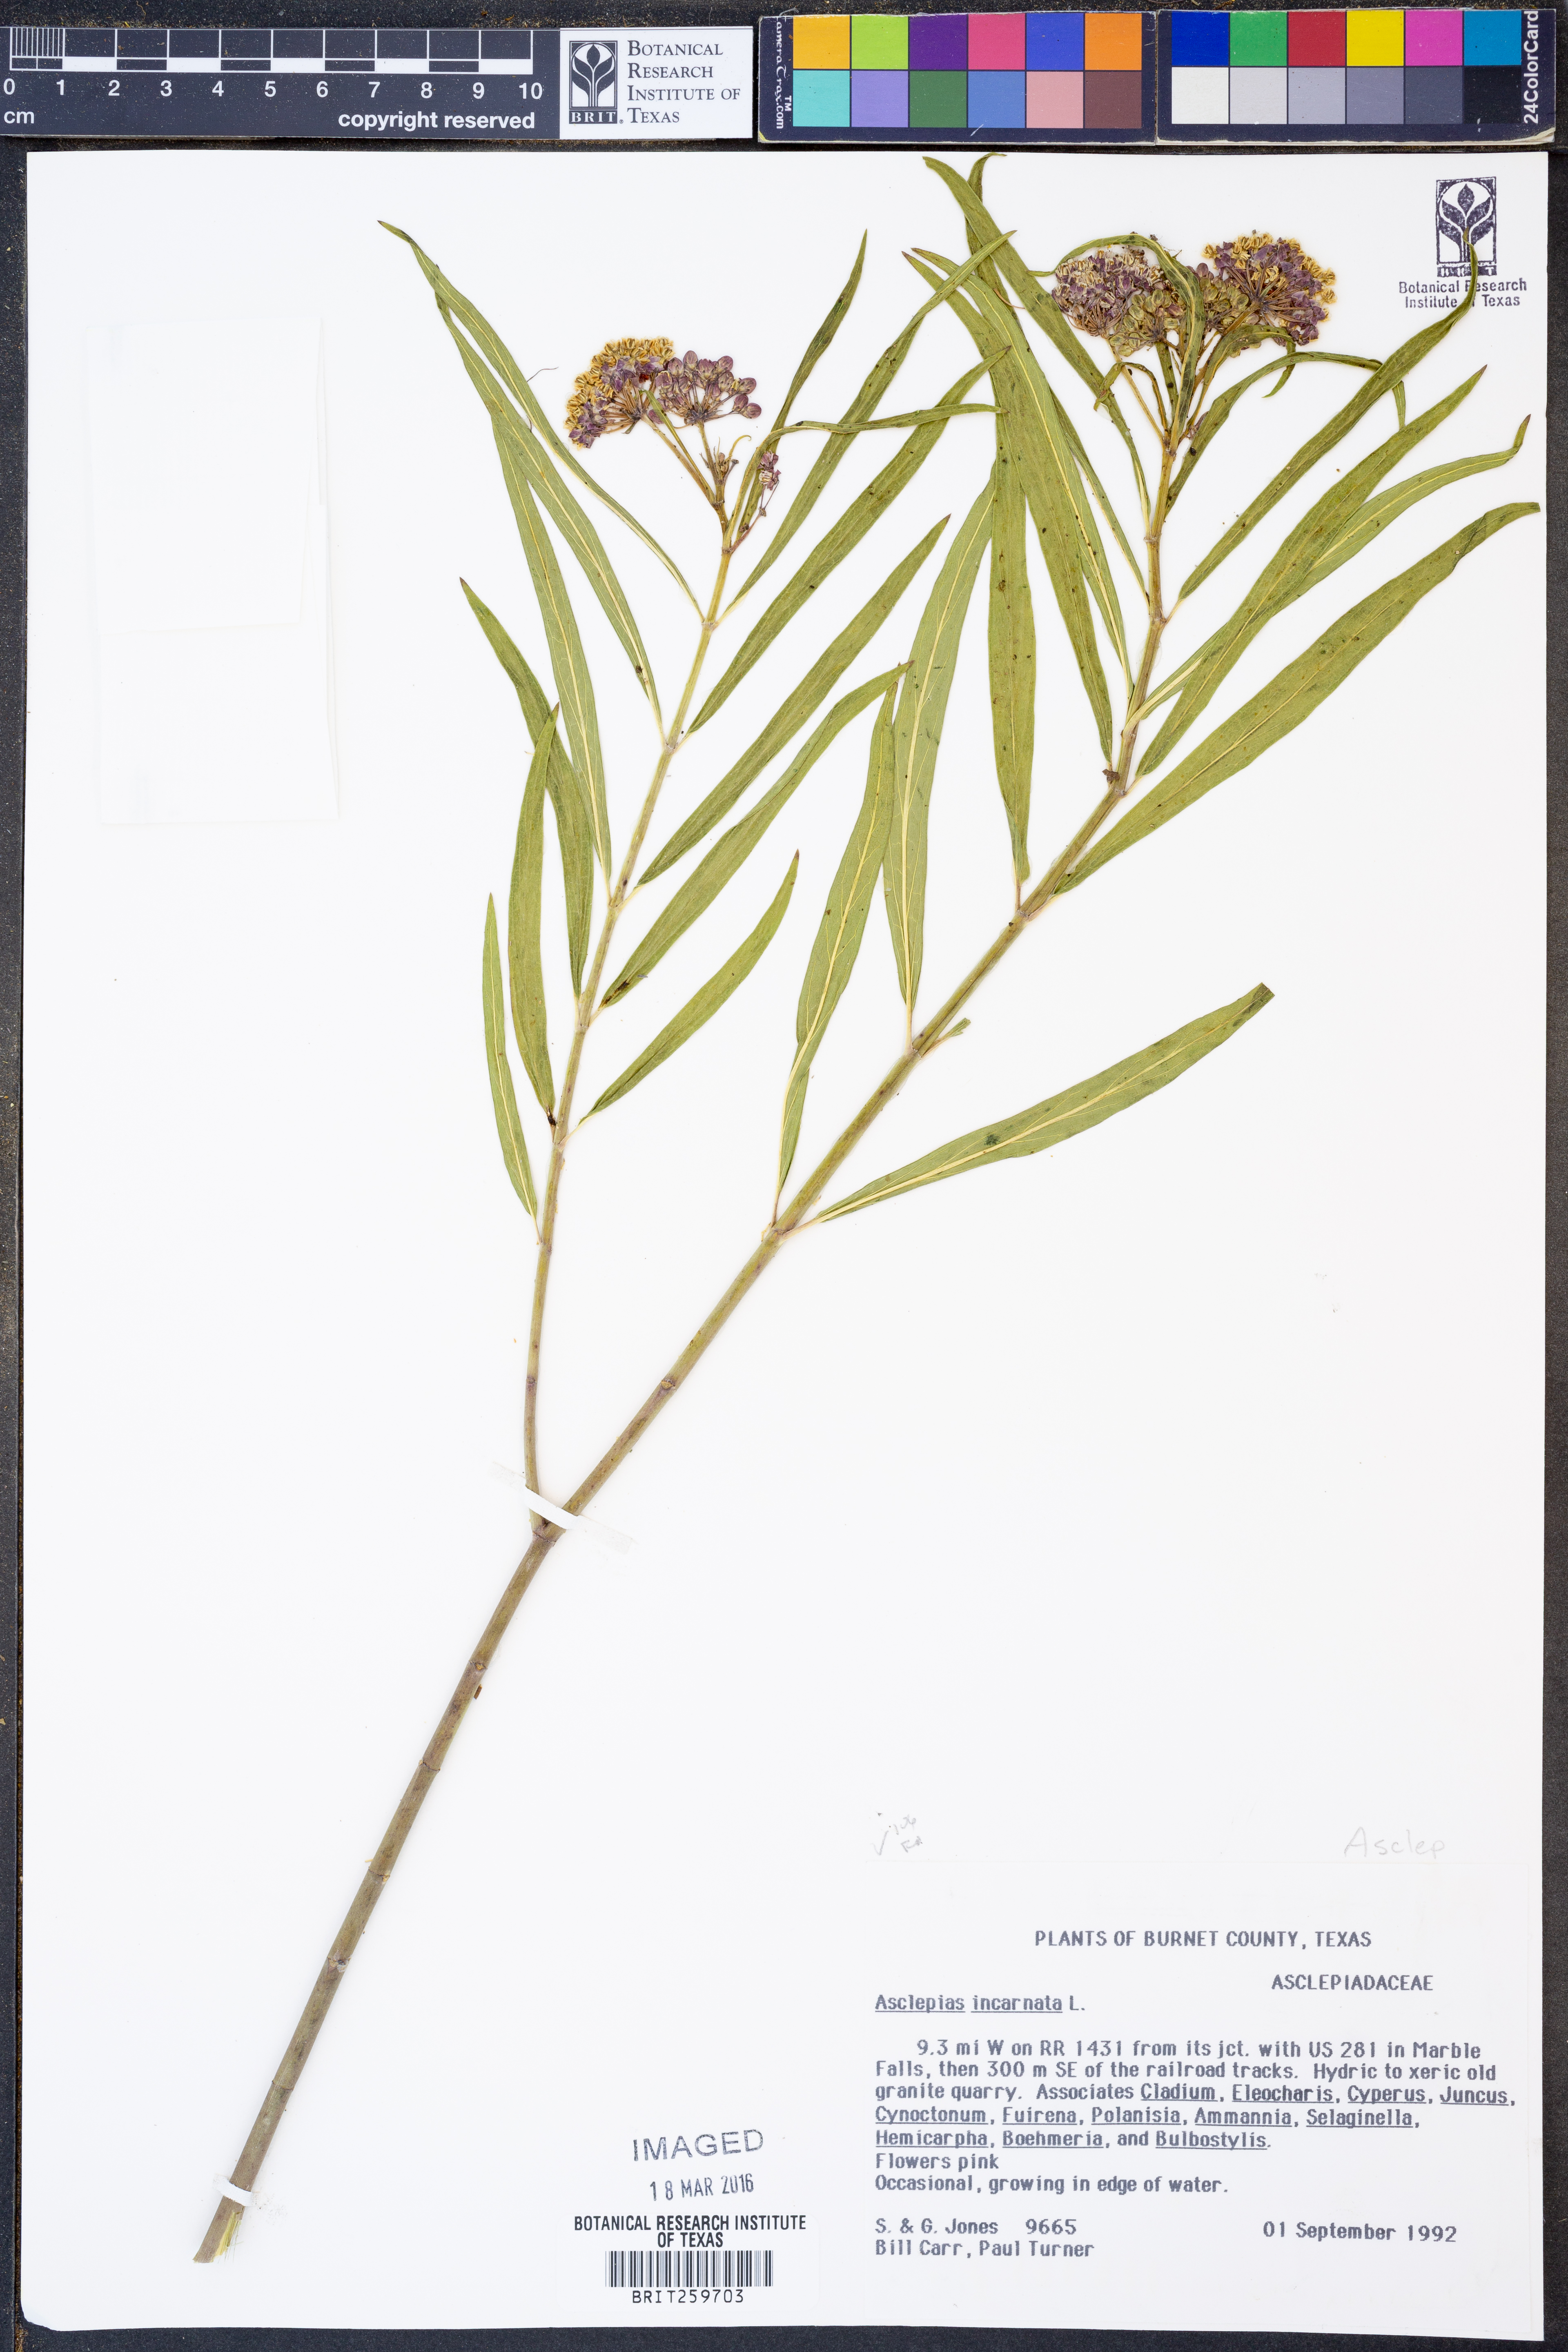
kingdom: Plantae
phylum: Tracheophyta
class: Magnoliopsida
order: Gentianales
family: Apocynaceae
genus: Asclepias
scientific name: Asclepias incarnata
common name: Swamp milkweed
